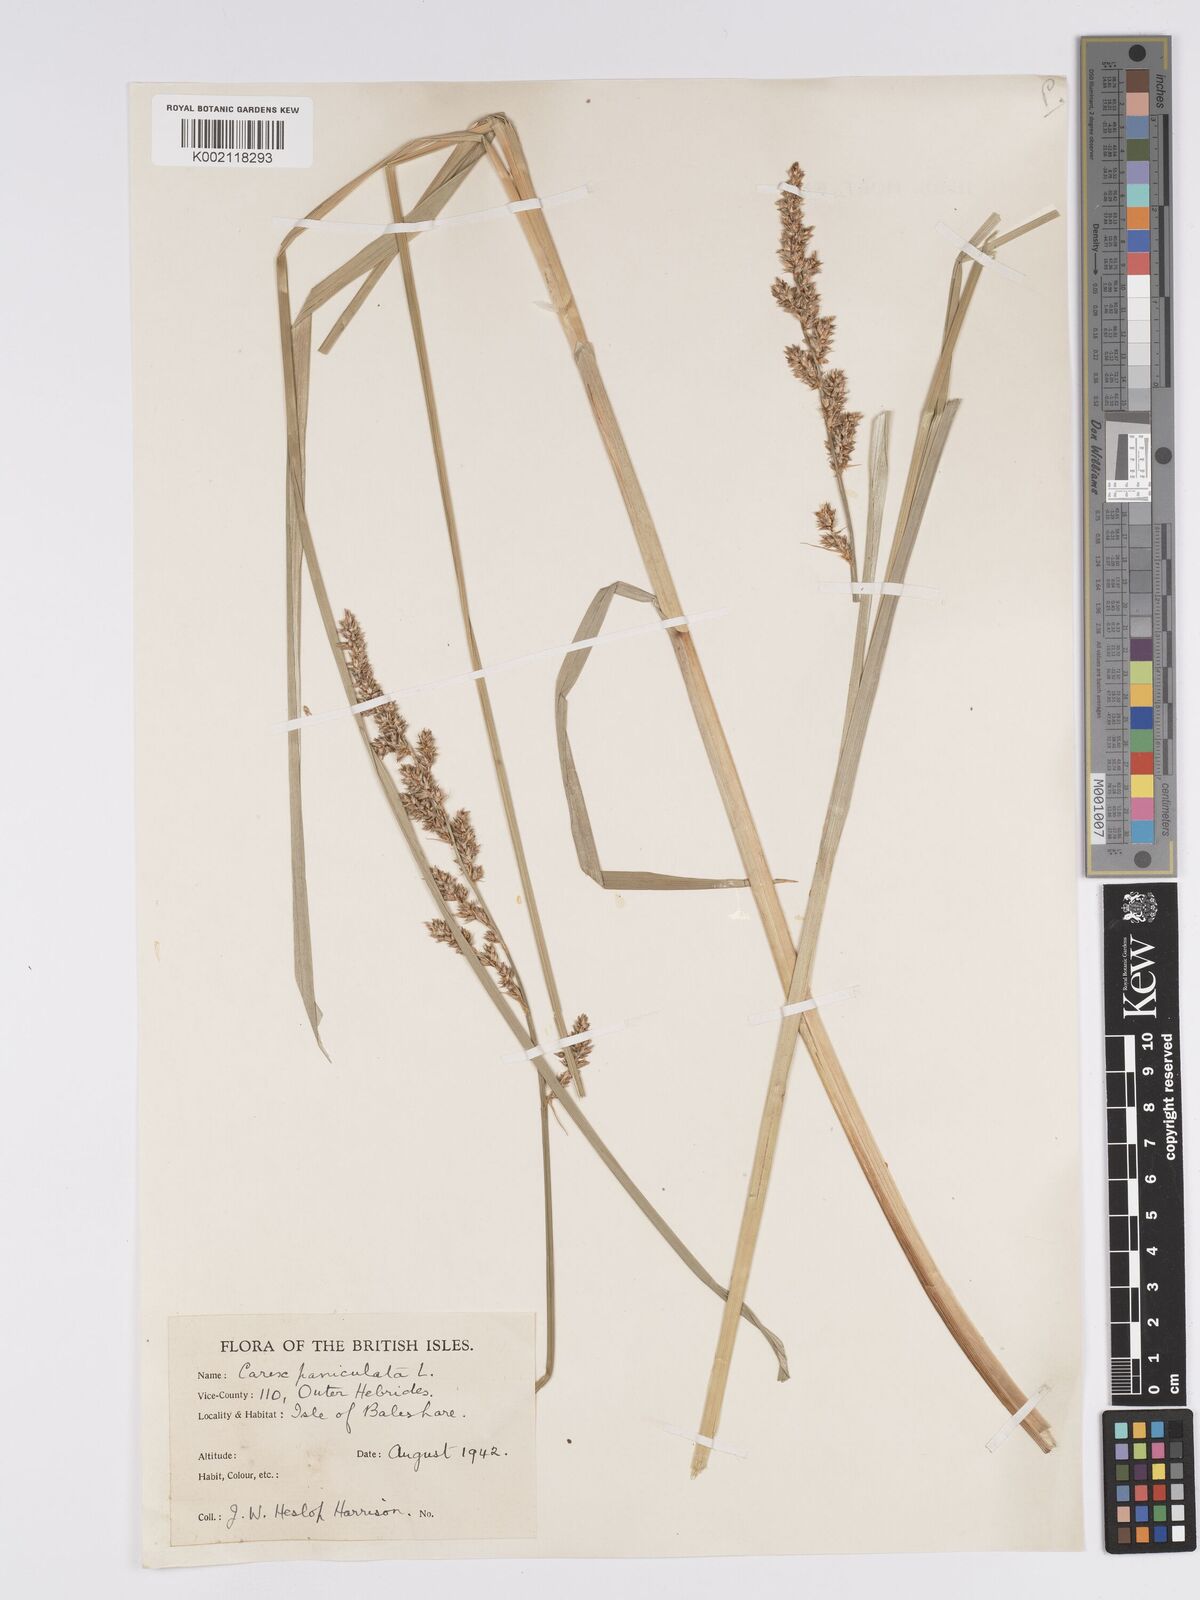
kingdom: Plantae
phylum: Tracheophyta
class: Liliopsida
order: Poales
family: Cyperaceae
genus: Carex
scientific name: Carex paniculata
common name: Greater tussock-sedge
